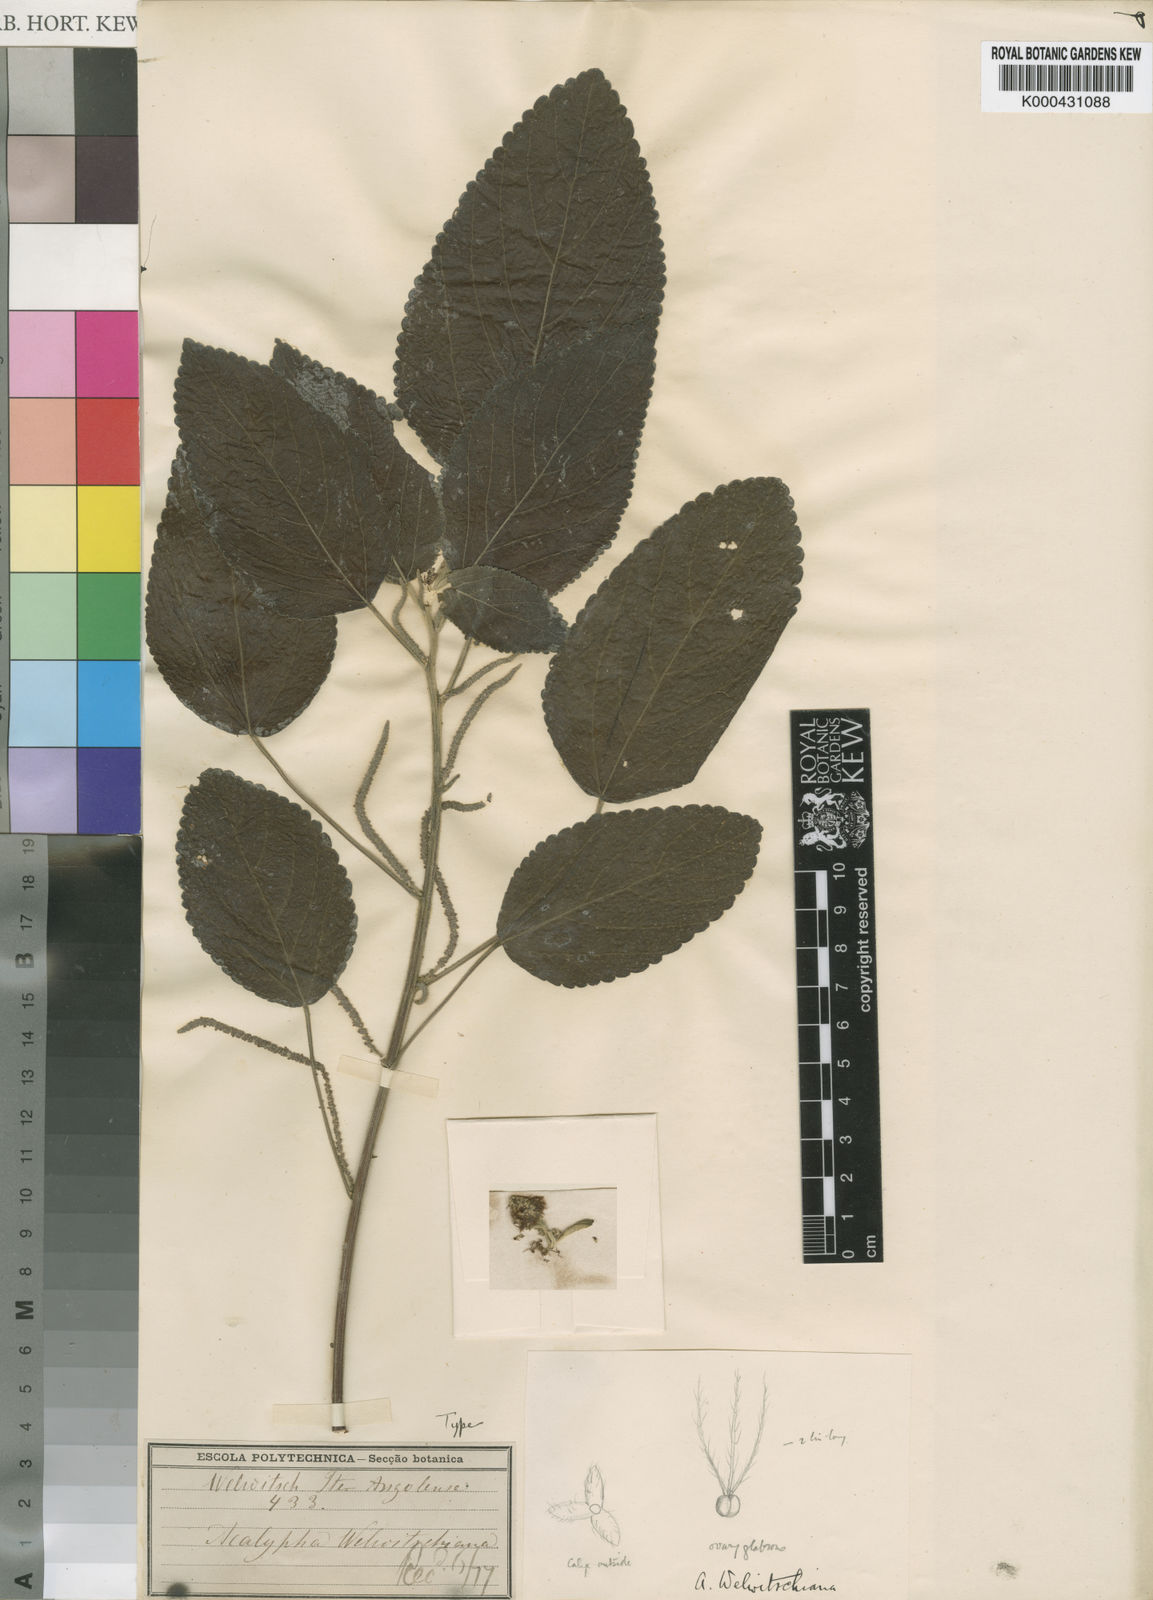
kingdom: Plantae
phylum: Tracheophyta
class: Magnoliopsida
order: Malpighiales
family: Euphorbiaceae
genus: Acalypha
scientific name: Acalypha
